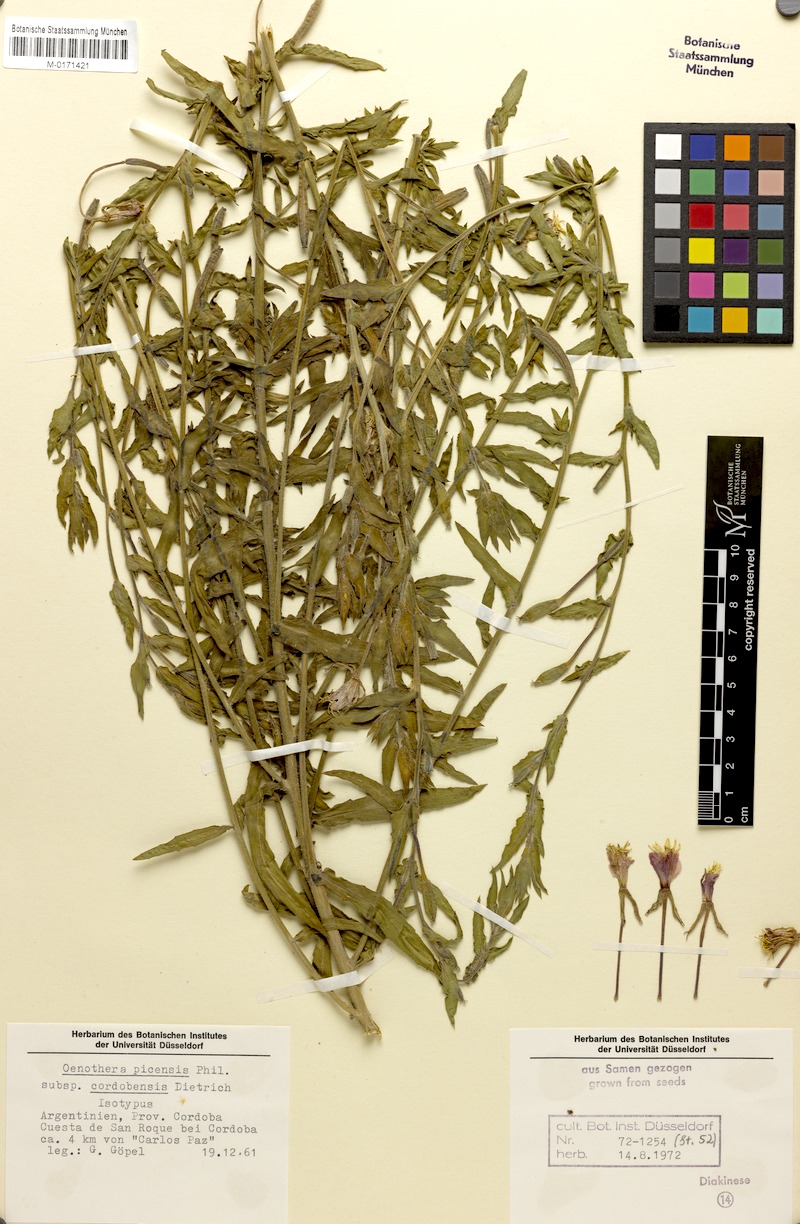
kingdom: Plantae
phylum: Tracheophyta
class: Magnoliopsida
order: Myrtales
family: Onagraceae
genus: Oenothera
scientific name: Oenothera picensis
